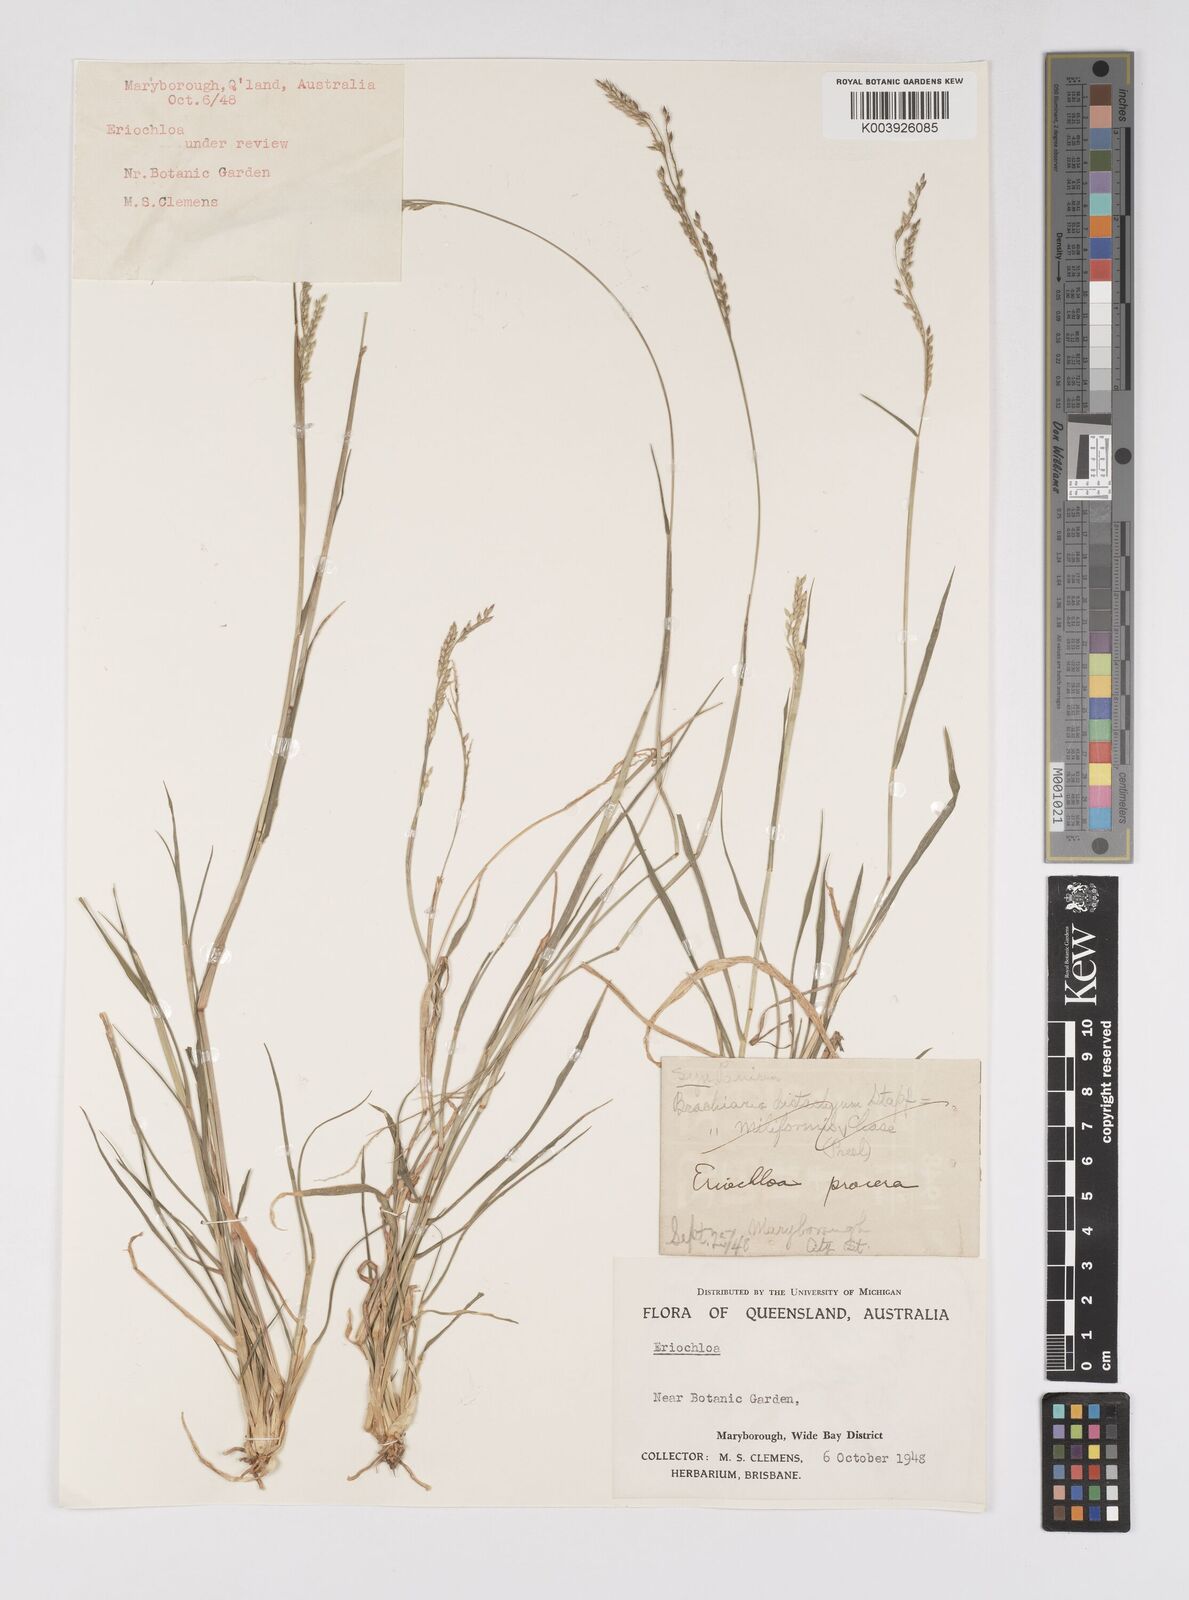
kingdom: Plantae
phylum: Tracheophyta
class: Liliopsida
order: Poales
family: Poaceae
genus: Eriochloa
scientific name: Eriochloa
